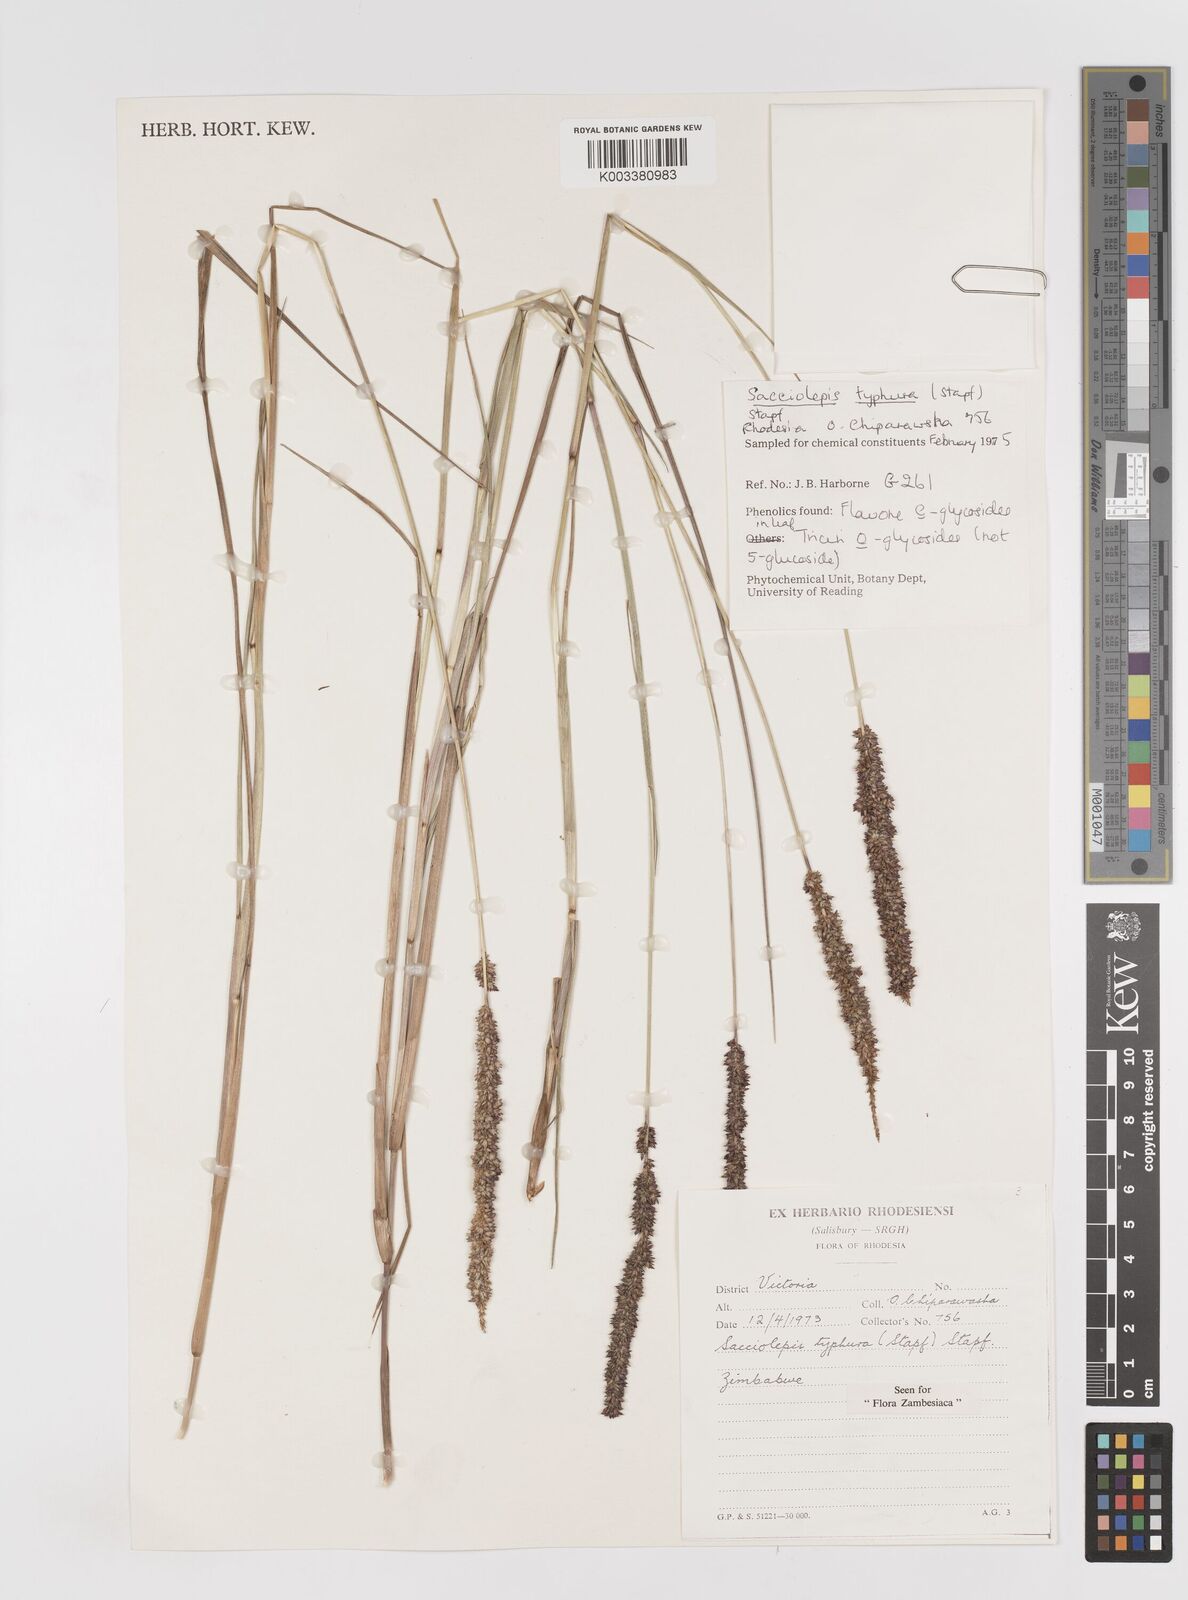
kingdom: Plantae
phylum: Tracheophyta
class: Liliopsida
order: Poales
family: Poaceae
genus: Sacciolepis
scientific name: Sacciolepis typhura
